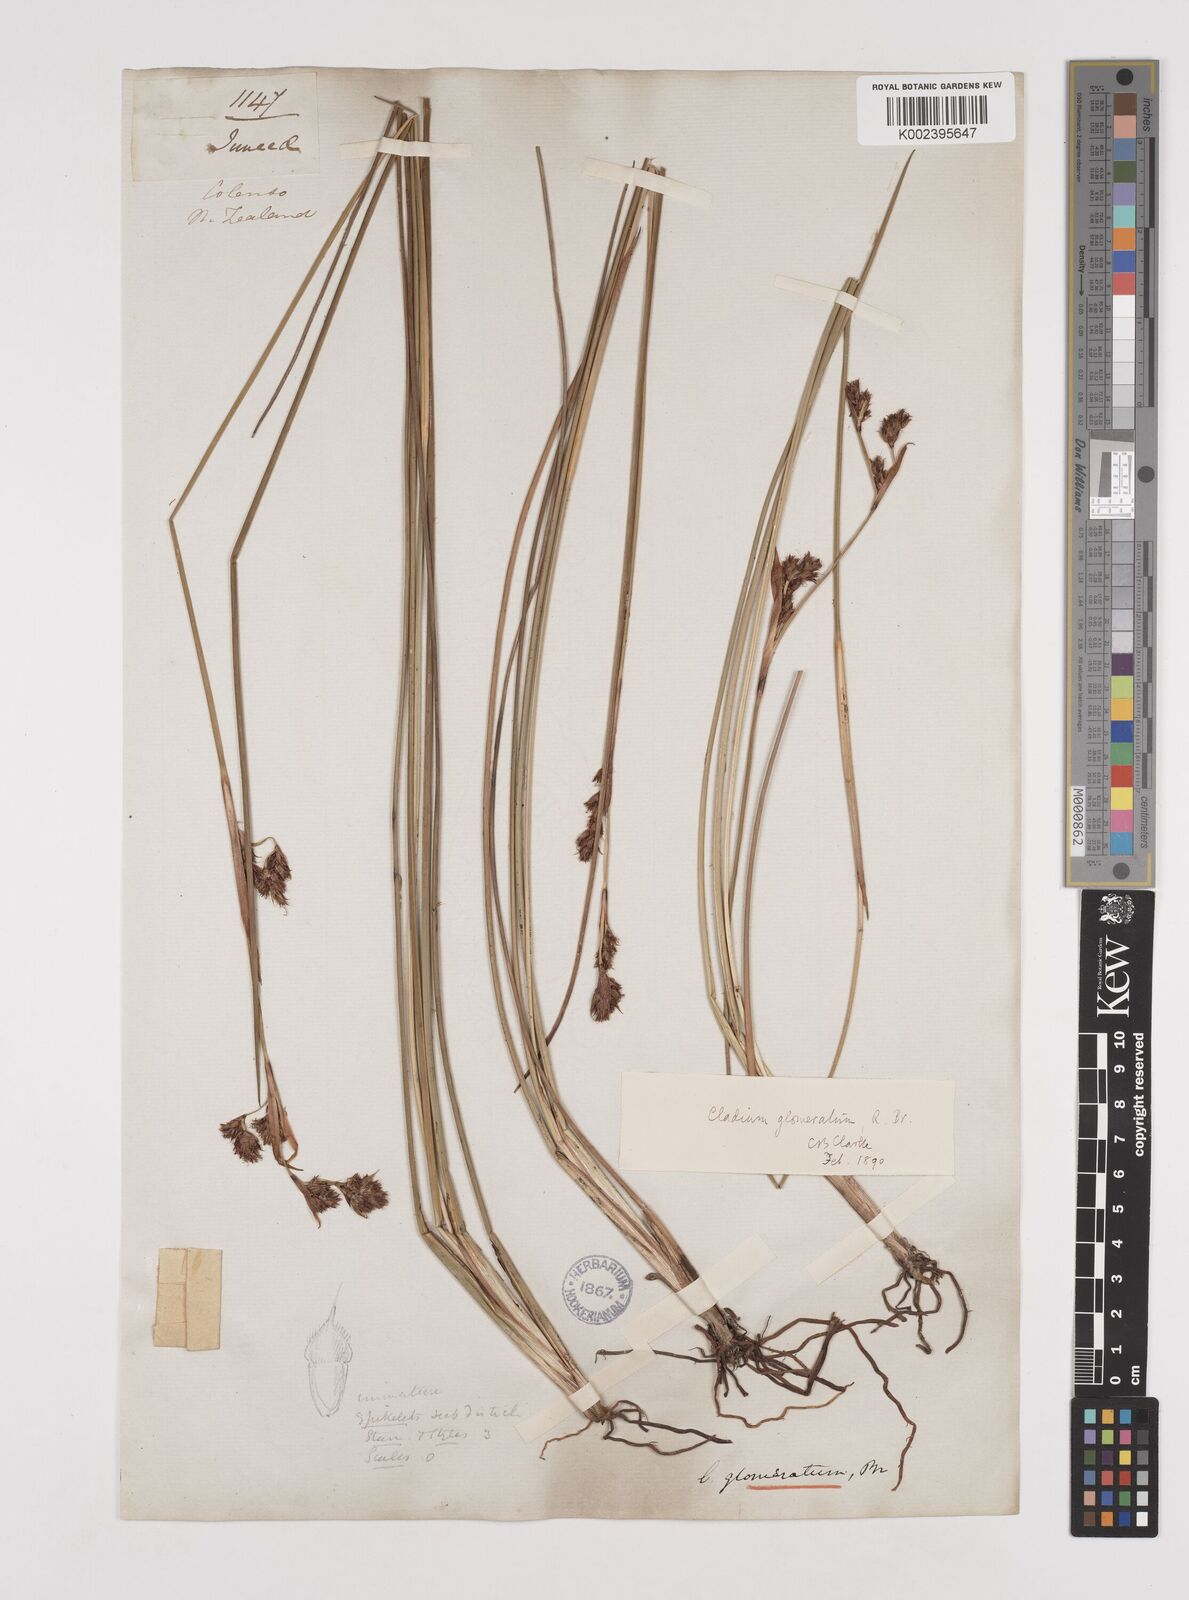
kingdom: Plantae
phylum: Tracheophyta
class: Liliopsida
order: Poales
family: Cyperaceae
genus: Machaerina
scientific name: Machaerina rubiginosa
